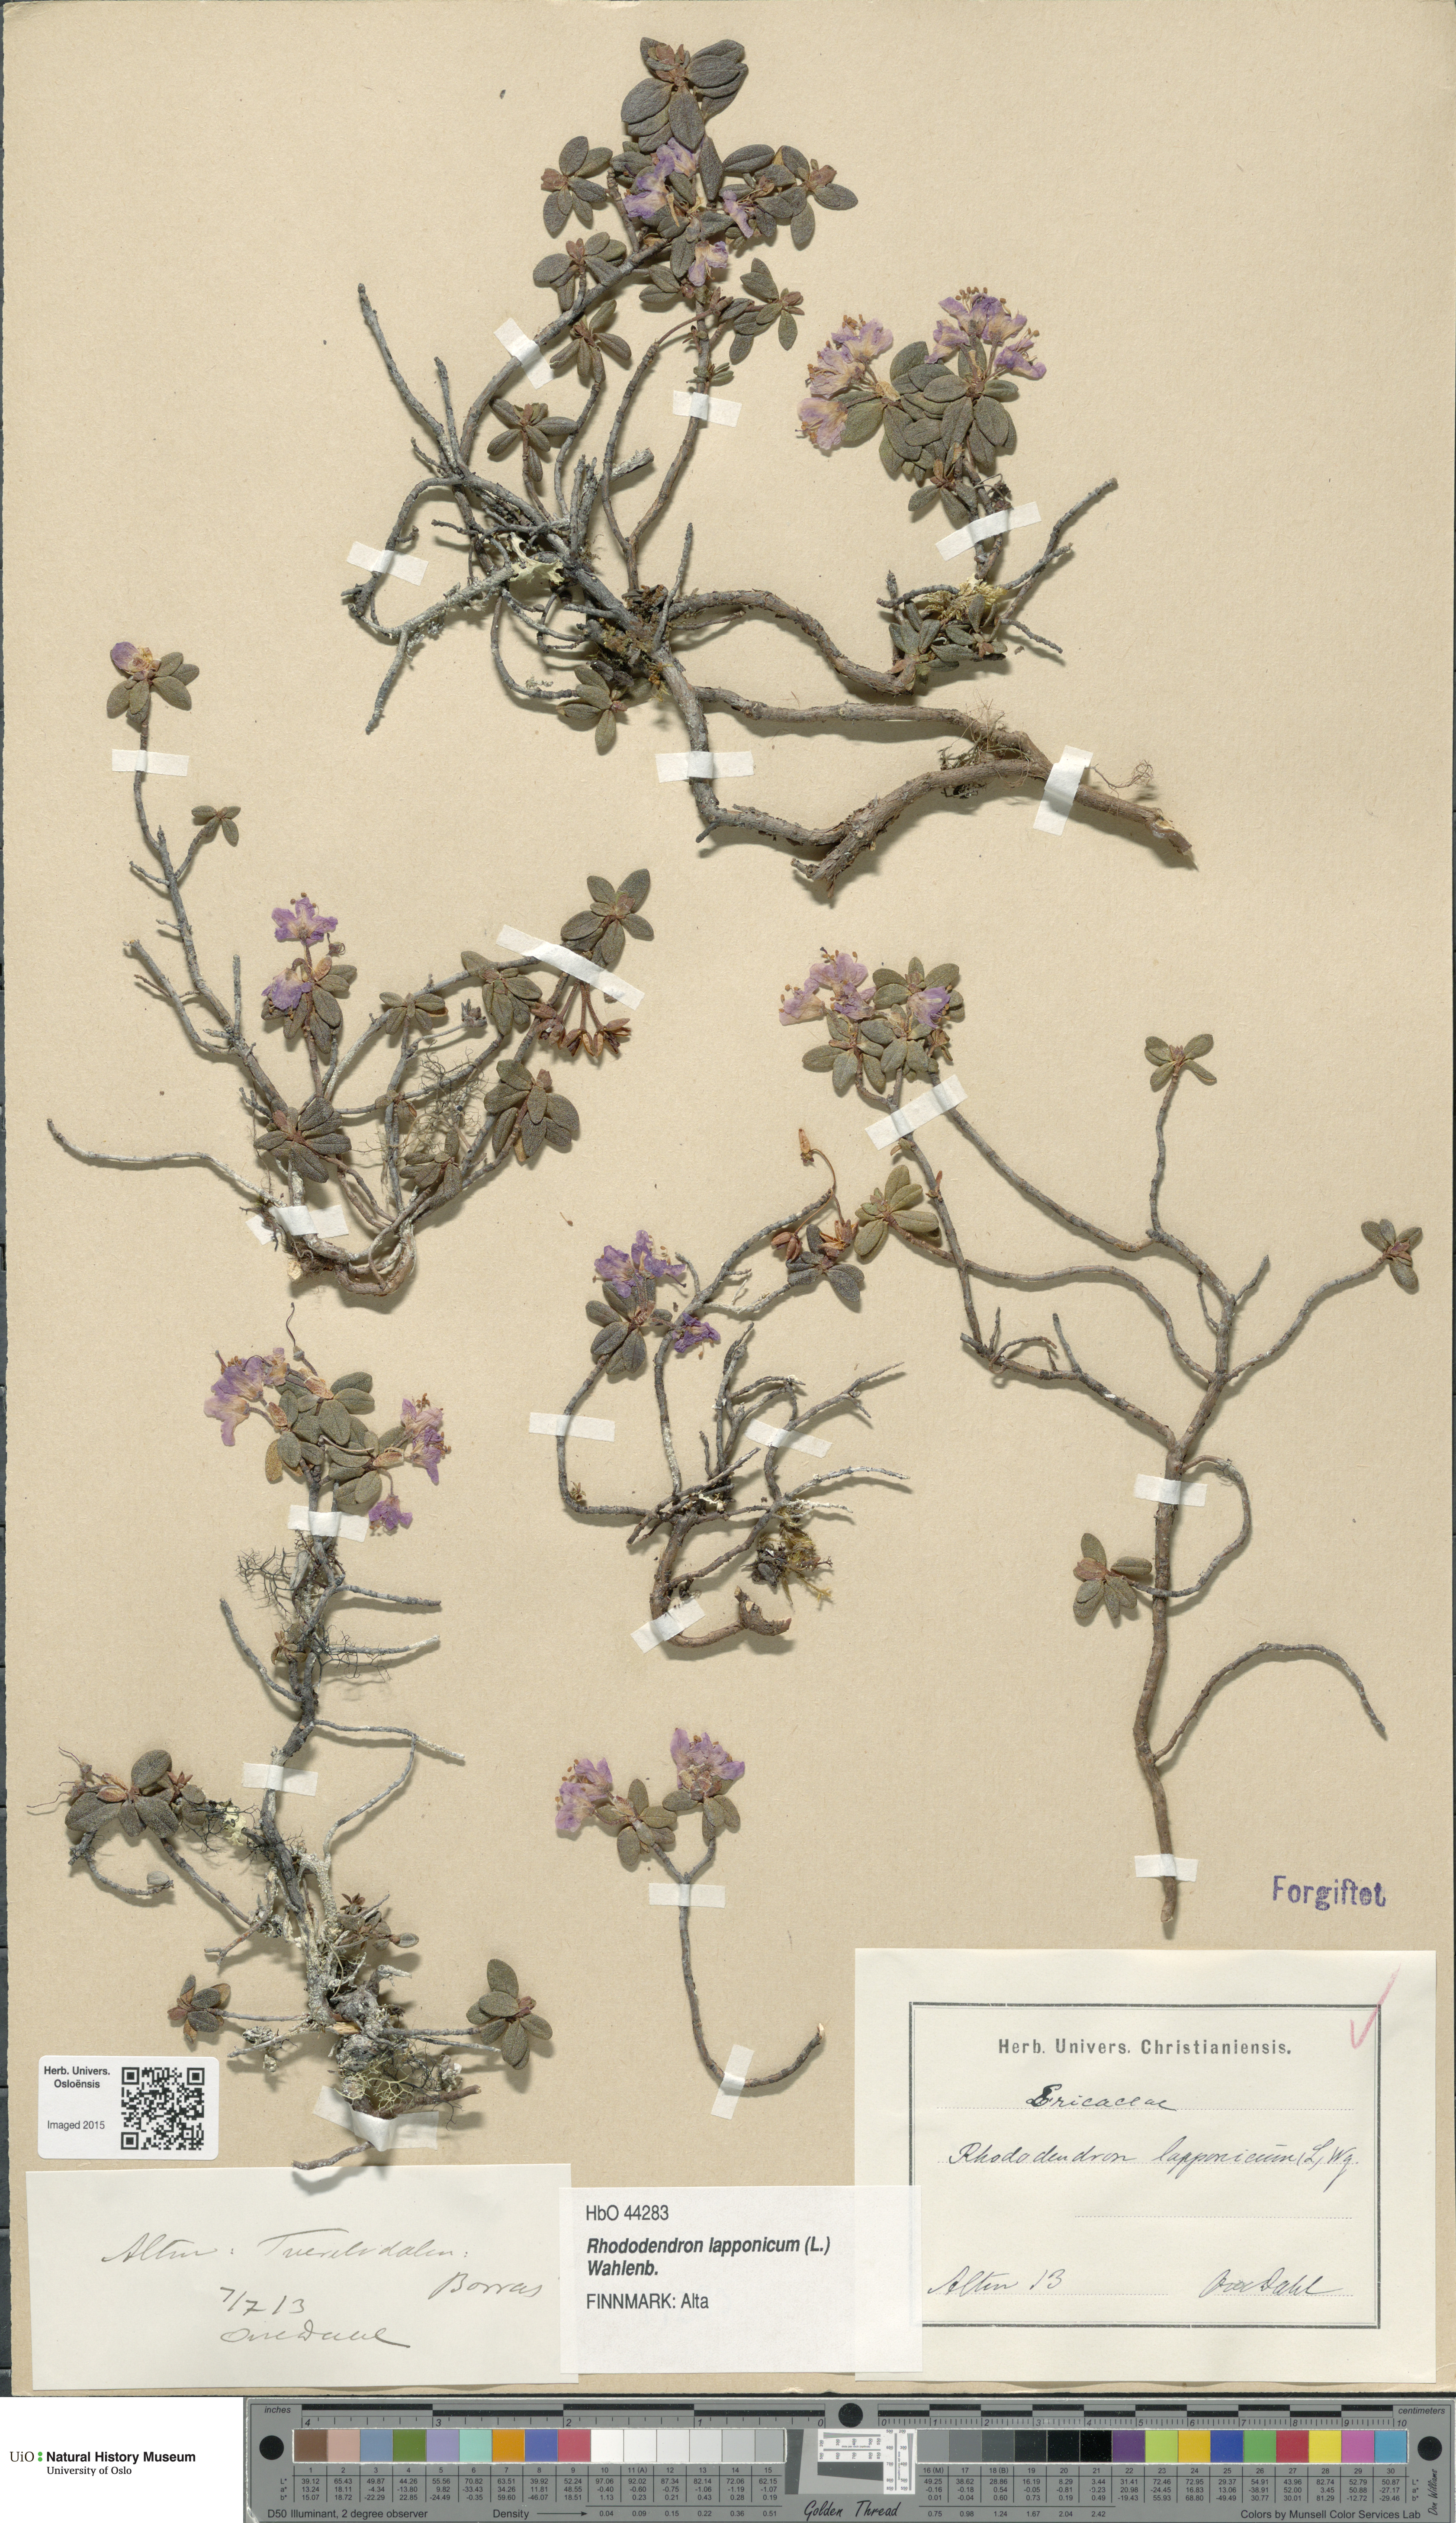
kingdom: Plantae
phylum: Tracheophyta
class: Magnoliopsida
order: Ericales
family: Ericaceae
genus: Rhododendron
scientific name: Rhododendron lapponicum
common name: Lapland rhododendron
